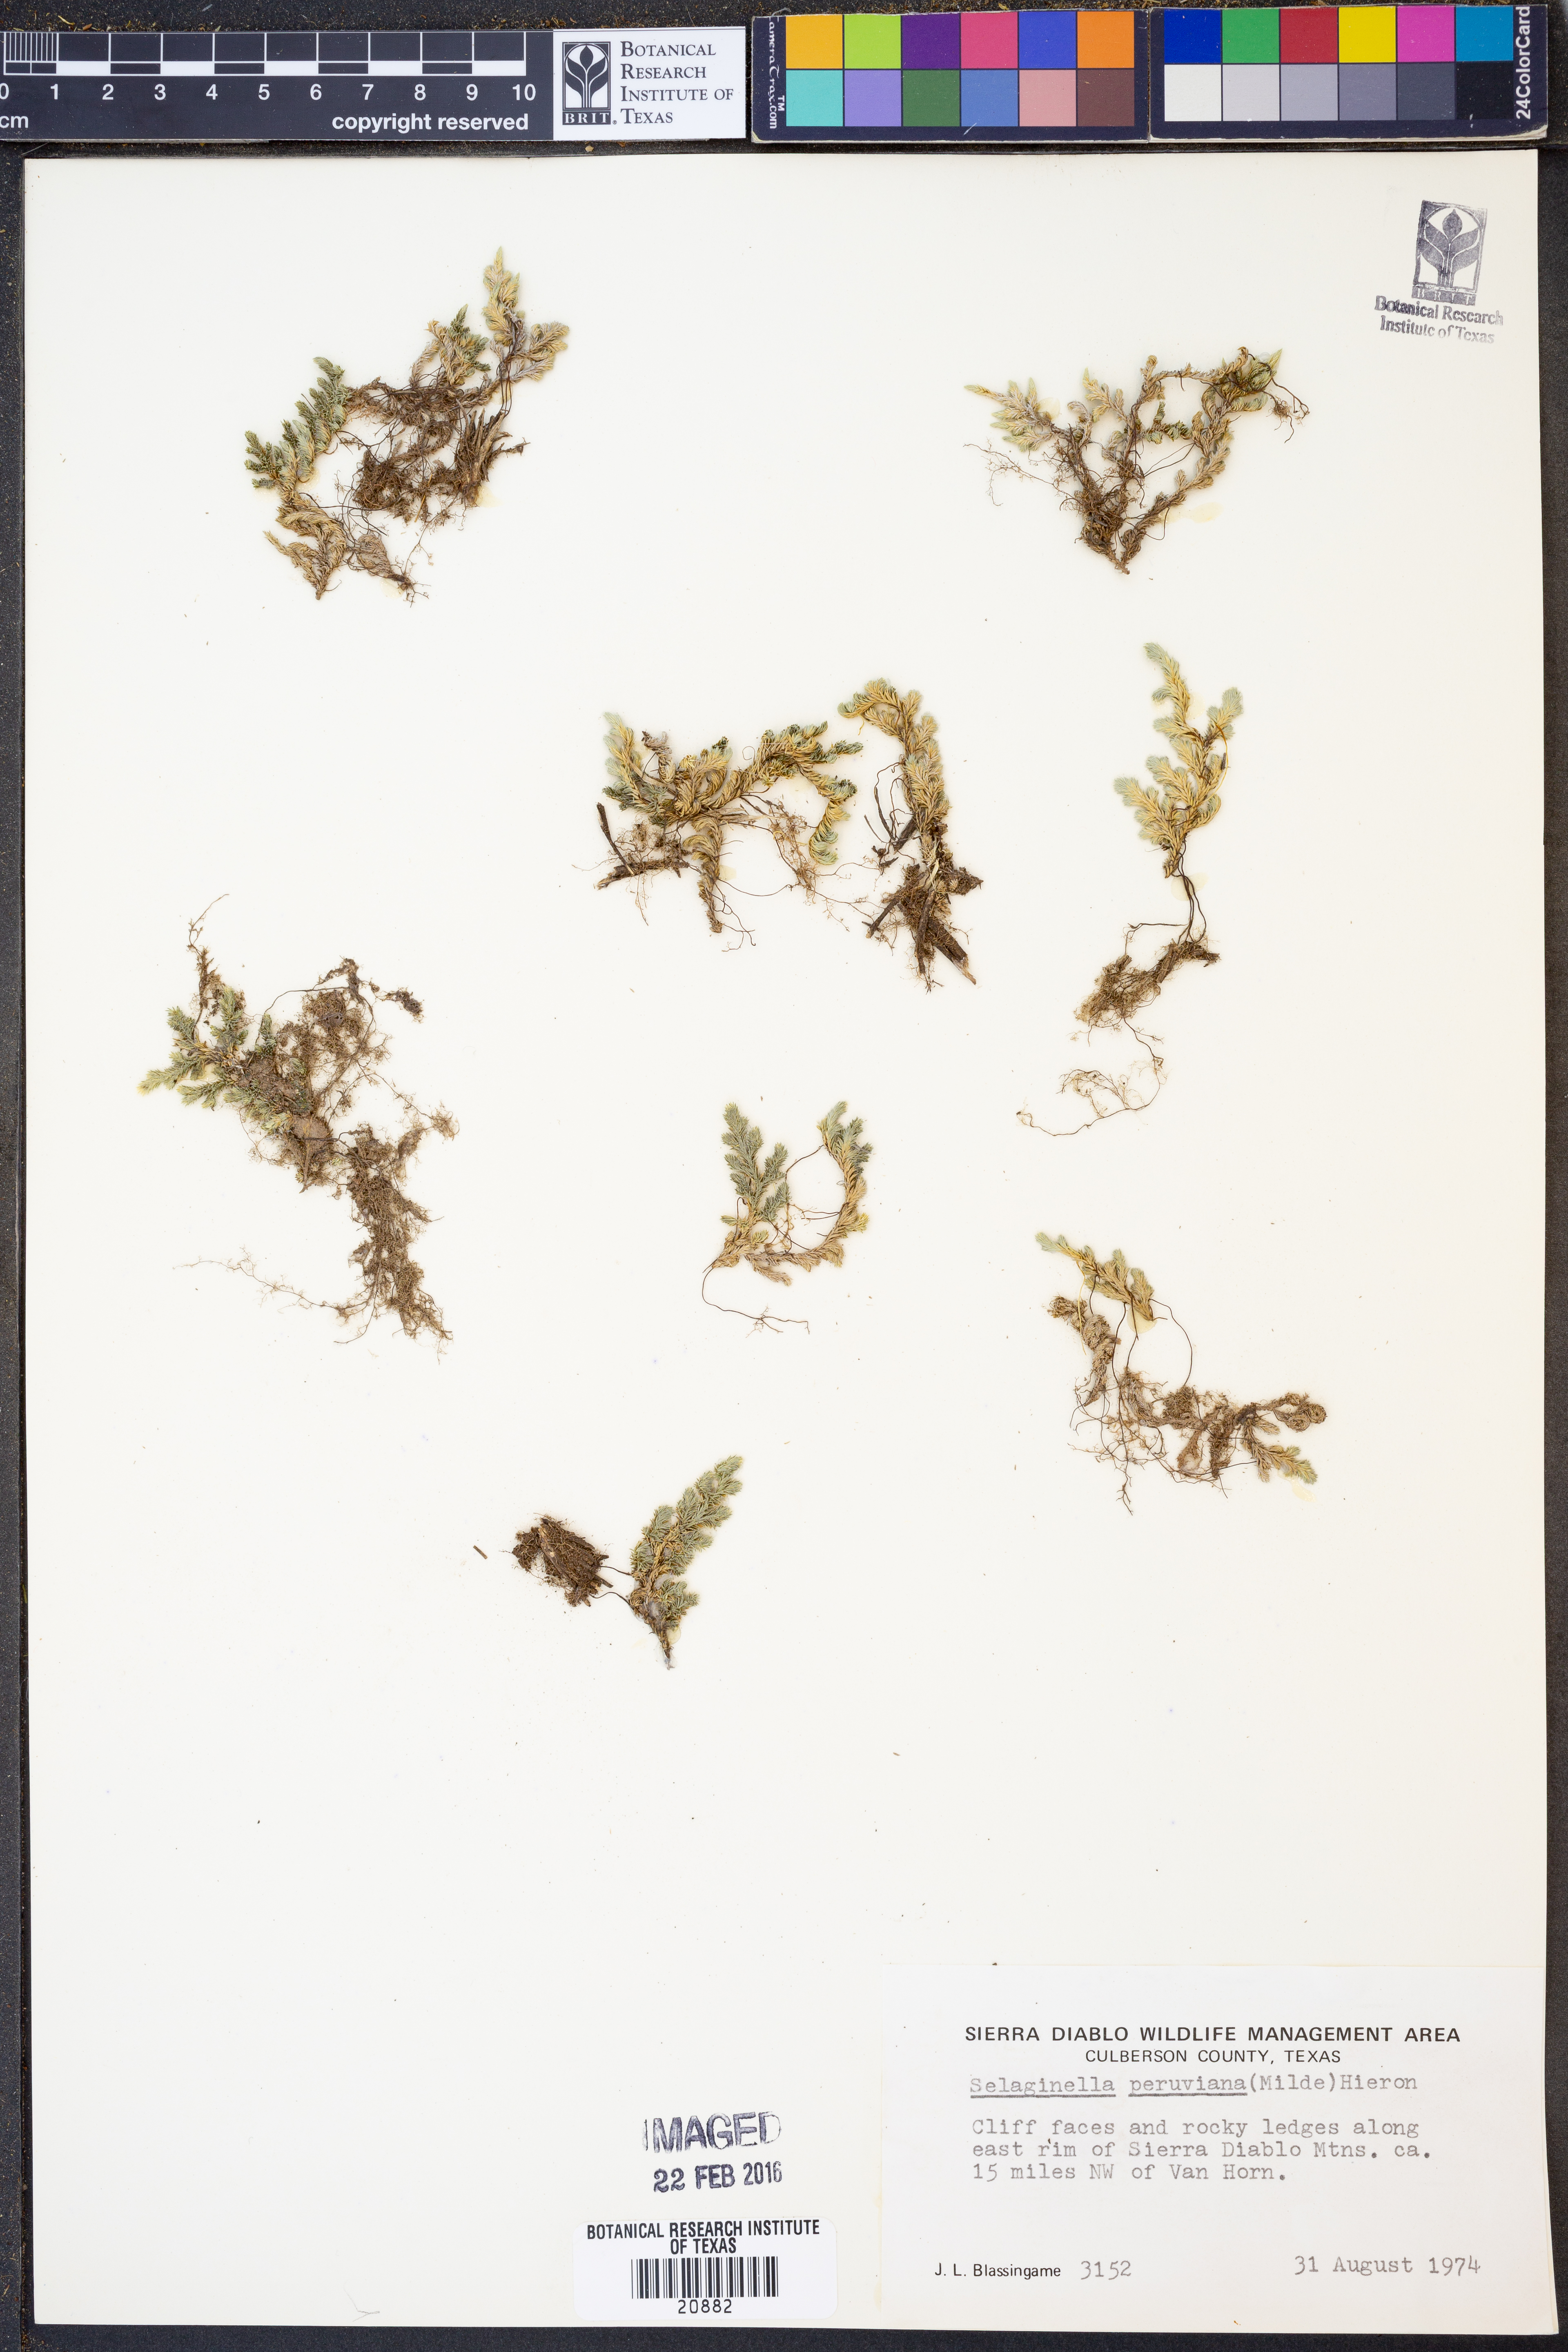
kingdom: Plantae
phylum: Tracheophyta
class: Lycopodiopsida
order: Selaginellales
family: Selaginellaceae
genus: Selaginella
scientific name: Selaginella peruviana
